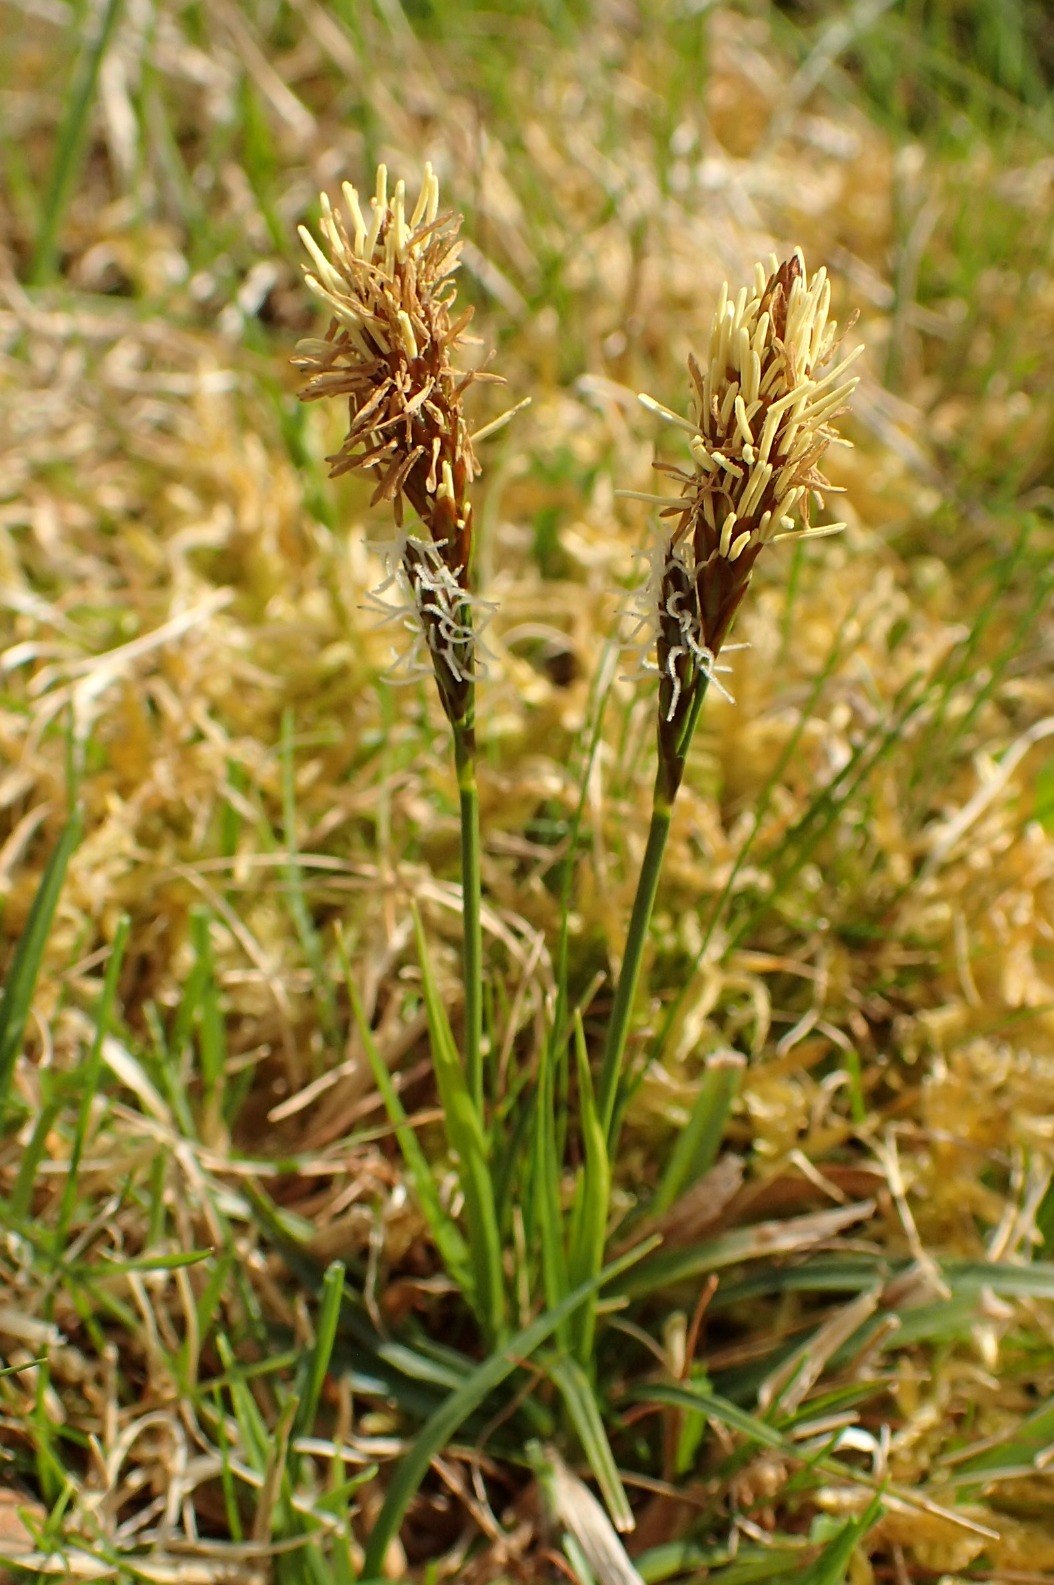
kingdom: Plantae
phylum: Tracheophyta
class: Liliopsida
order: Poales
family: Cyperaceae
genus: Carex
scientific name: Carex caryophyllea
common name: Vår-star
